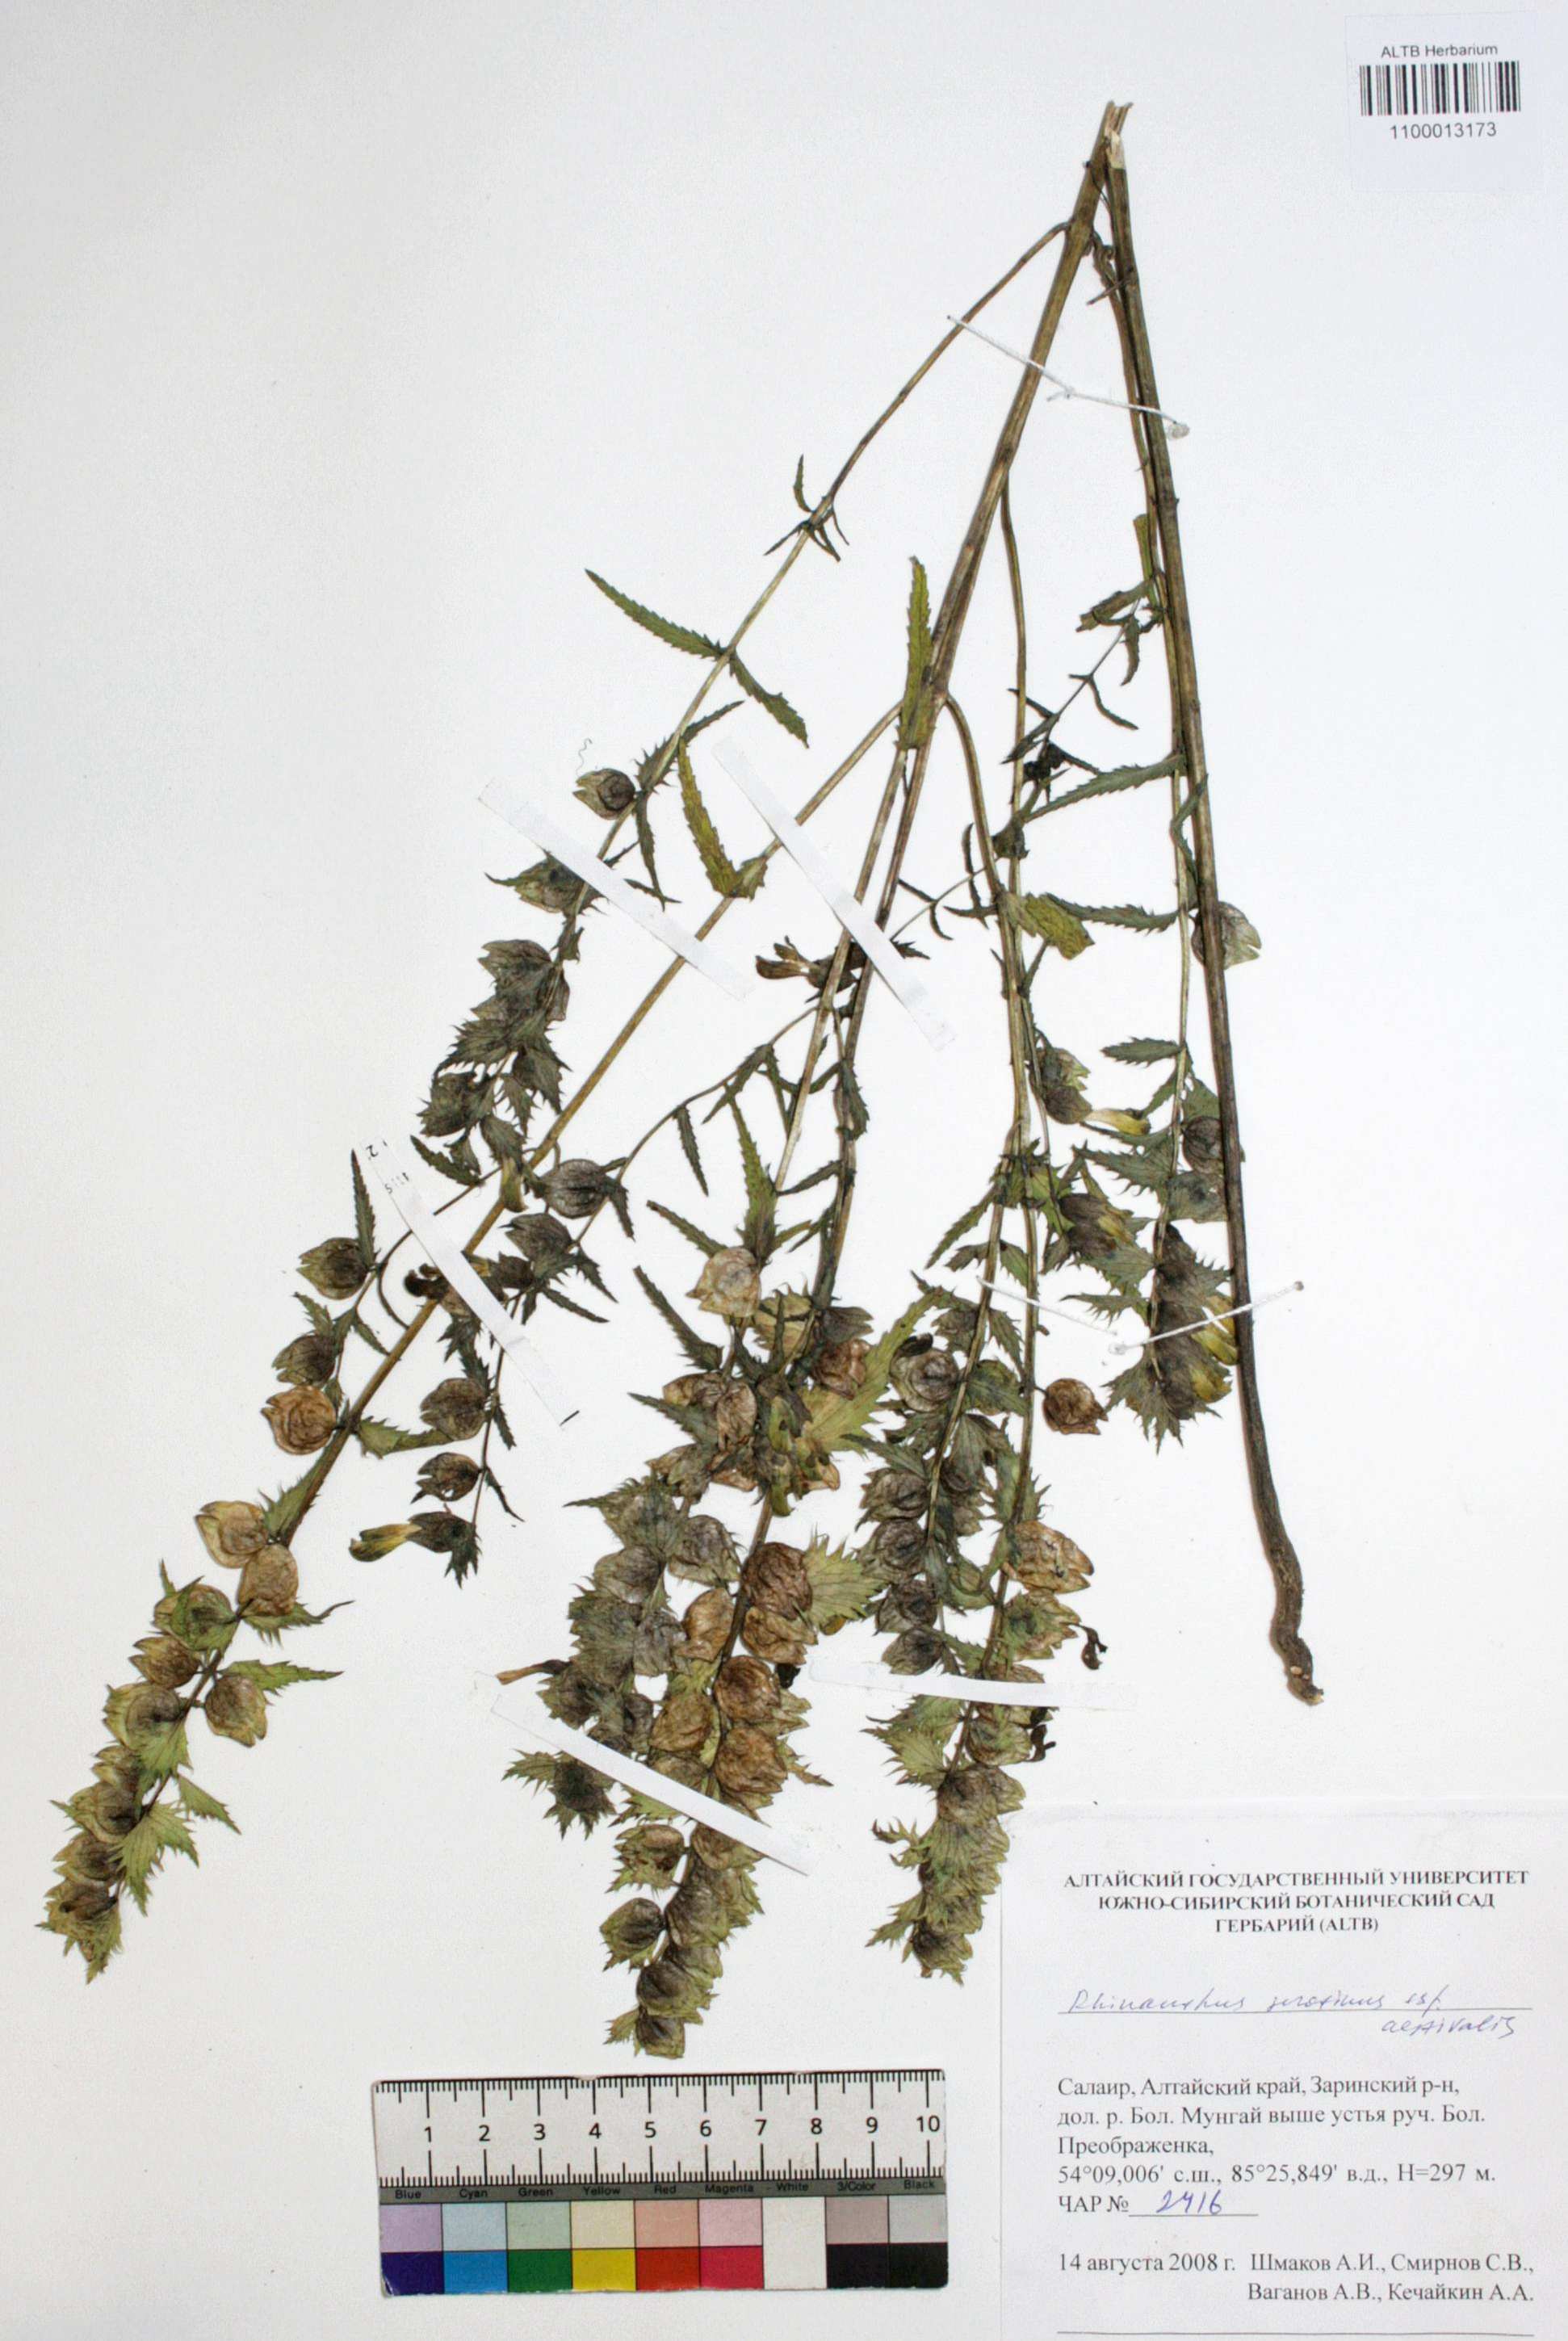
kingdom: Plantae
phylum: Tracheophyta
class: Magnoliopsida
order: Lamiales
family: Orobanchaceae
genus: Rhinanthus
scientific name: Rhinanthus serotinus
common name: Late-flowering yellow rattle
